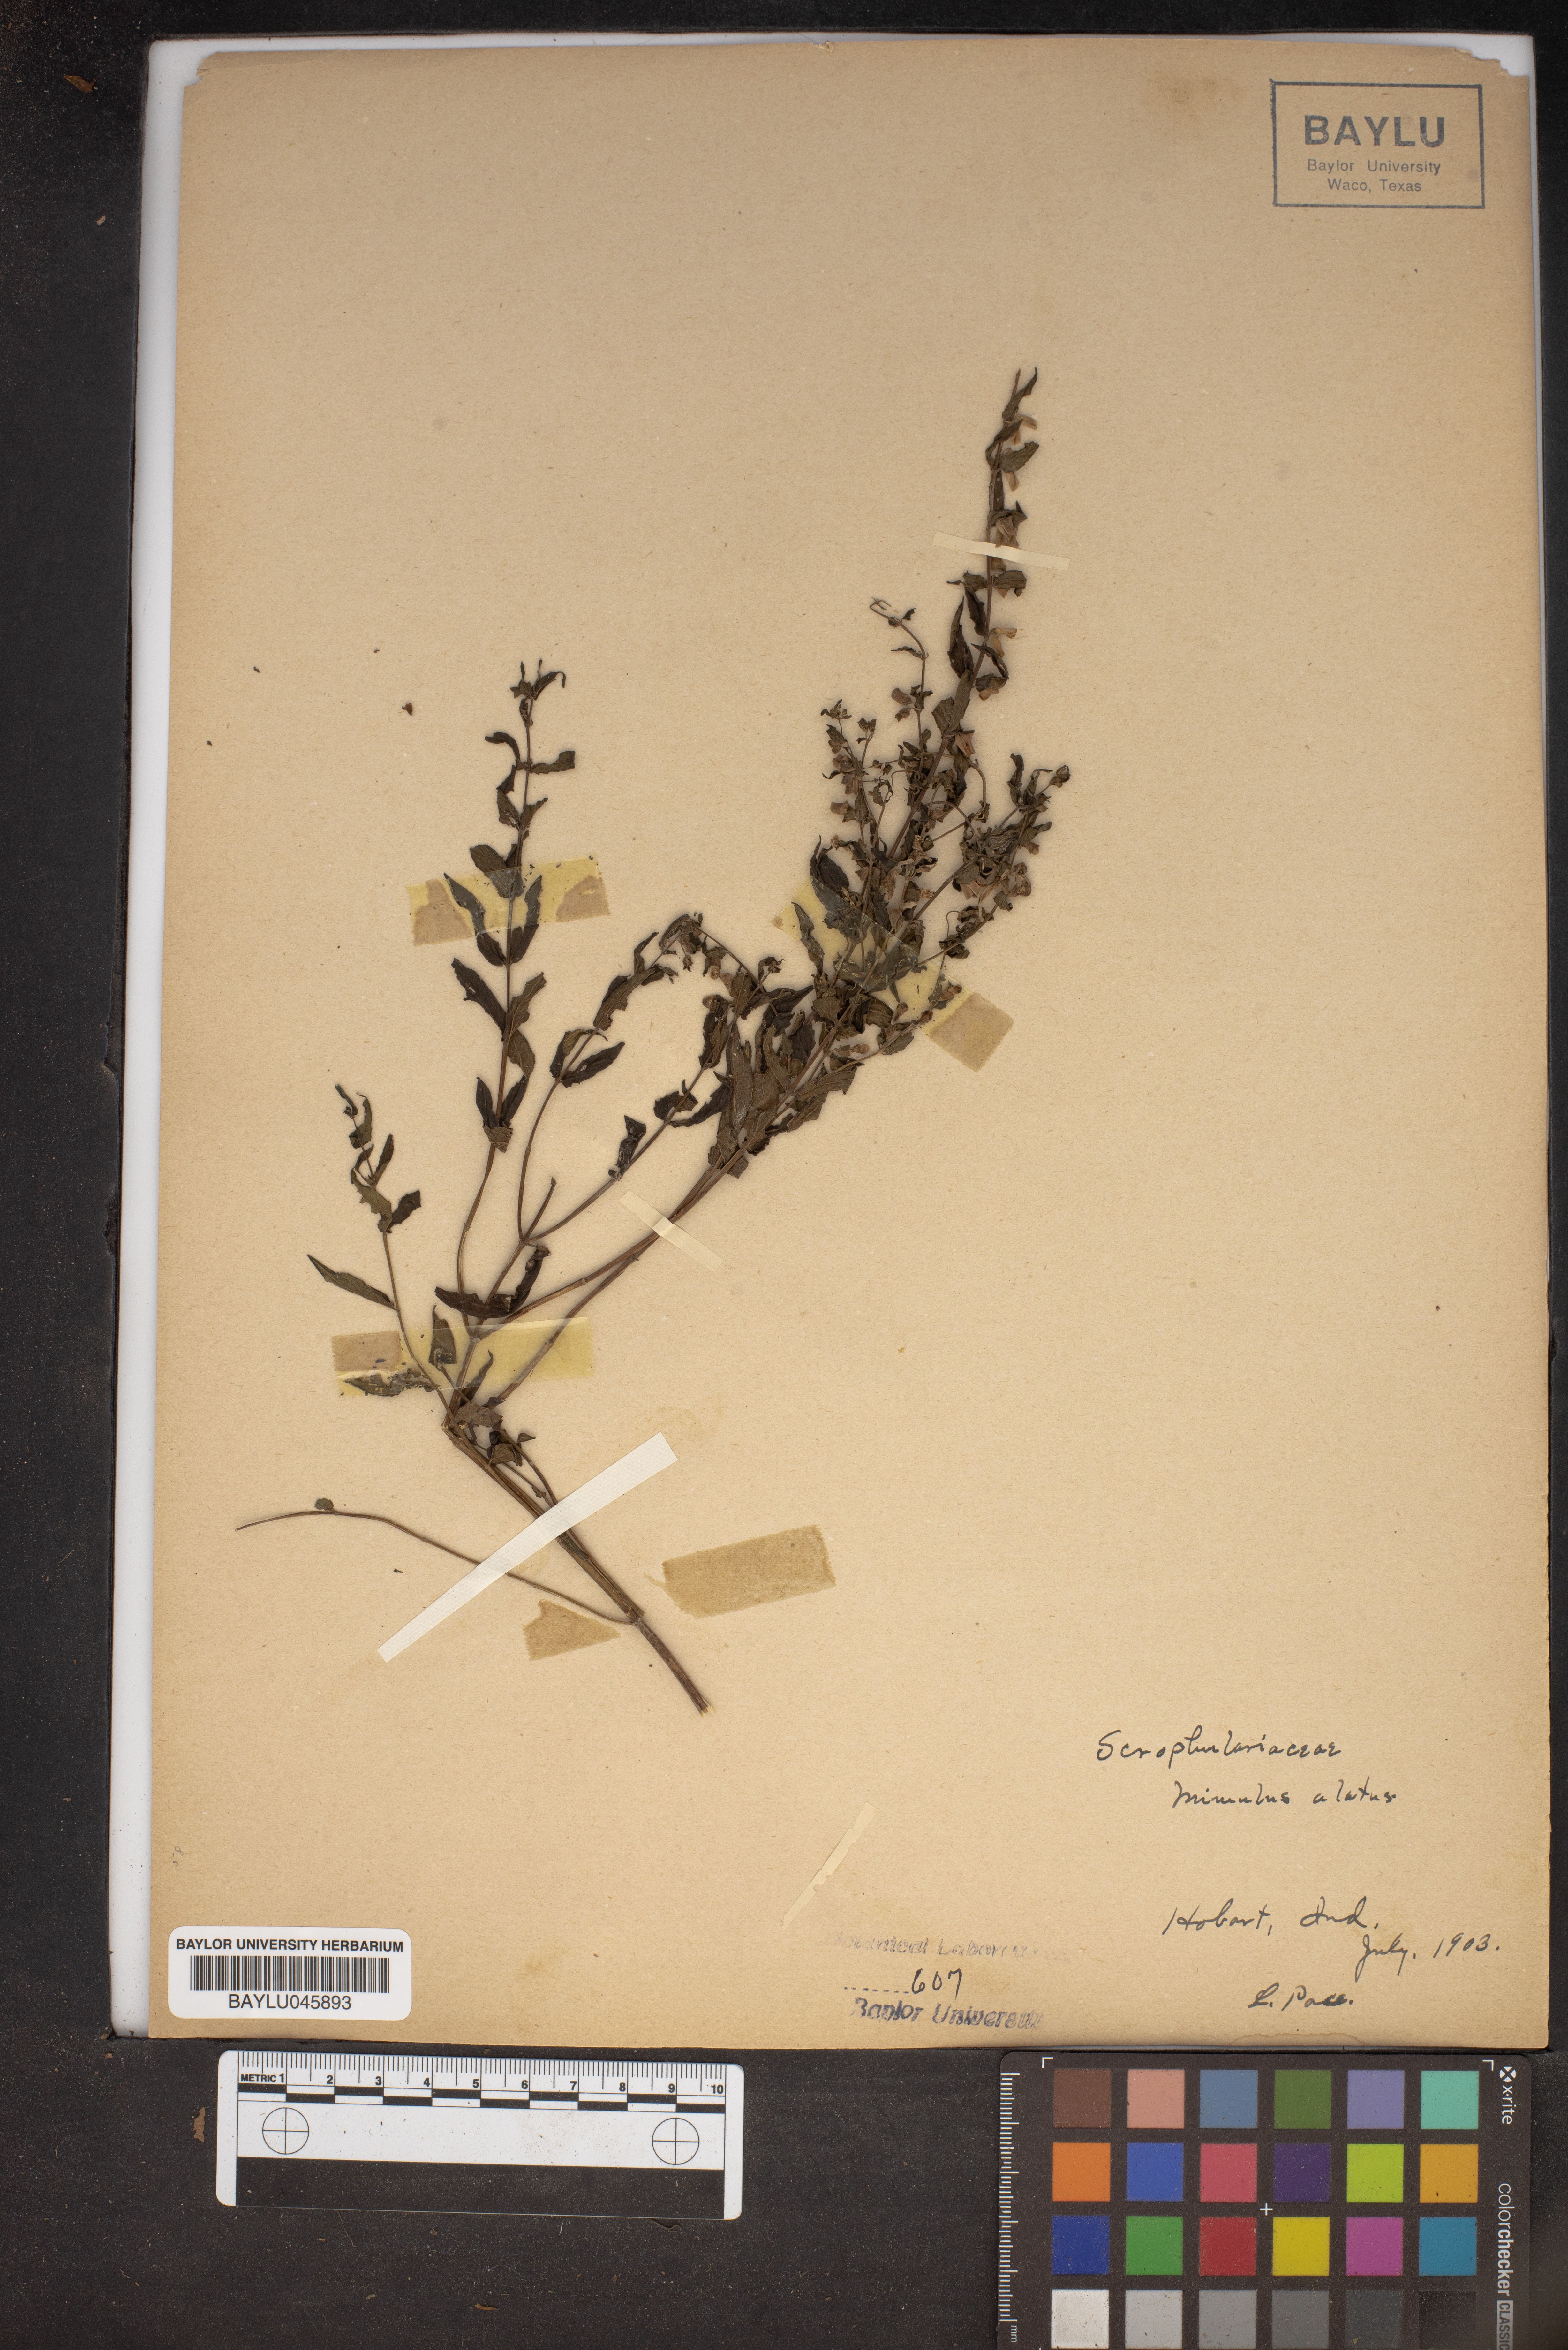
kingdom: Plantae
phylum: Tracheophyta
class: Magnoliopsida
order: Lamiales
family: Phrymaceae
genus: Mimulus
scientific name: Mimulus alatus
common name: Sharp-wing monkey-flower
